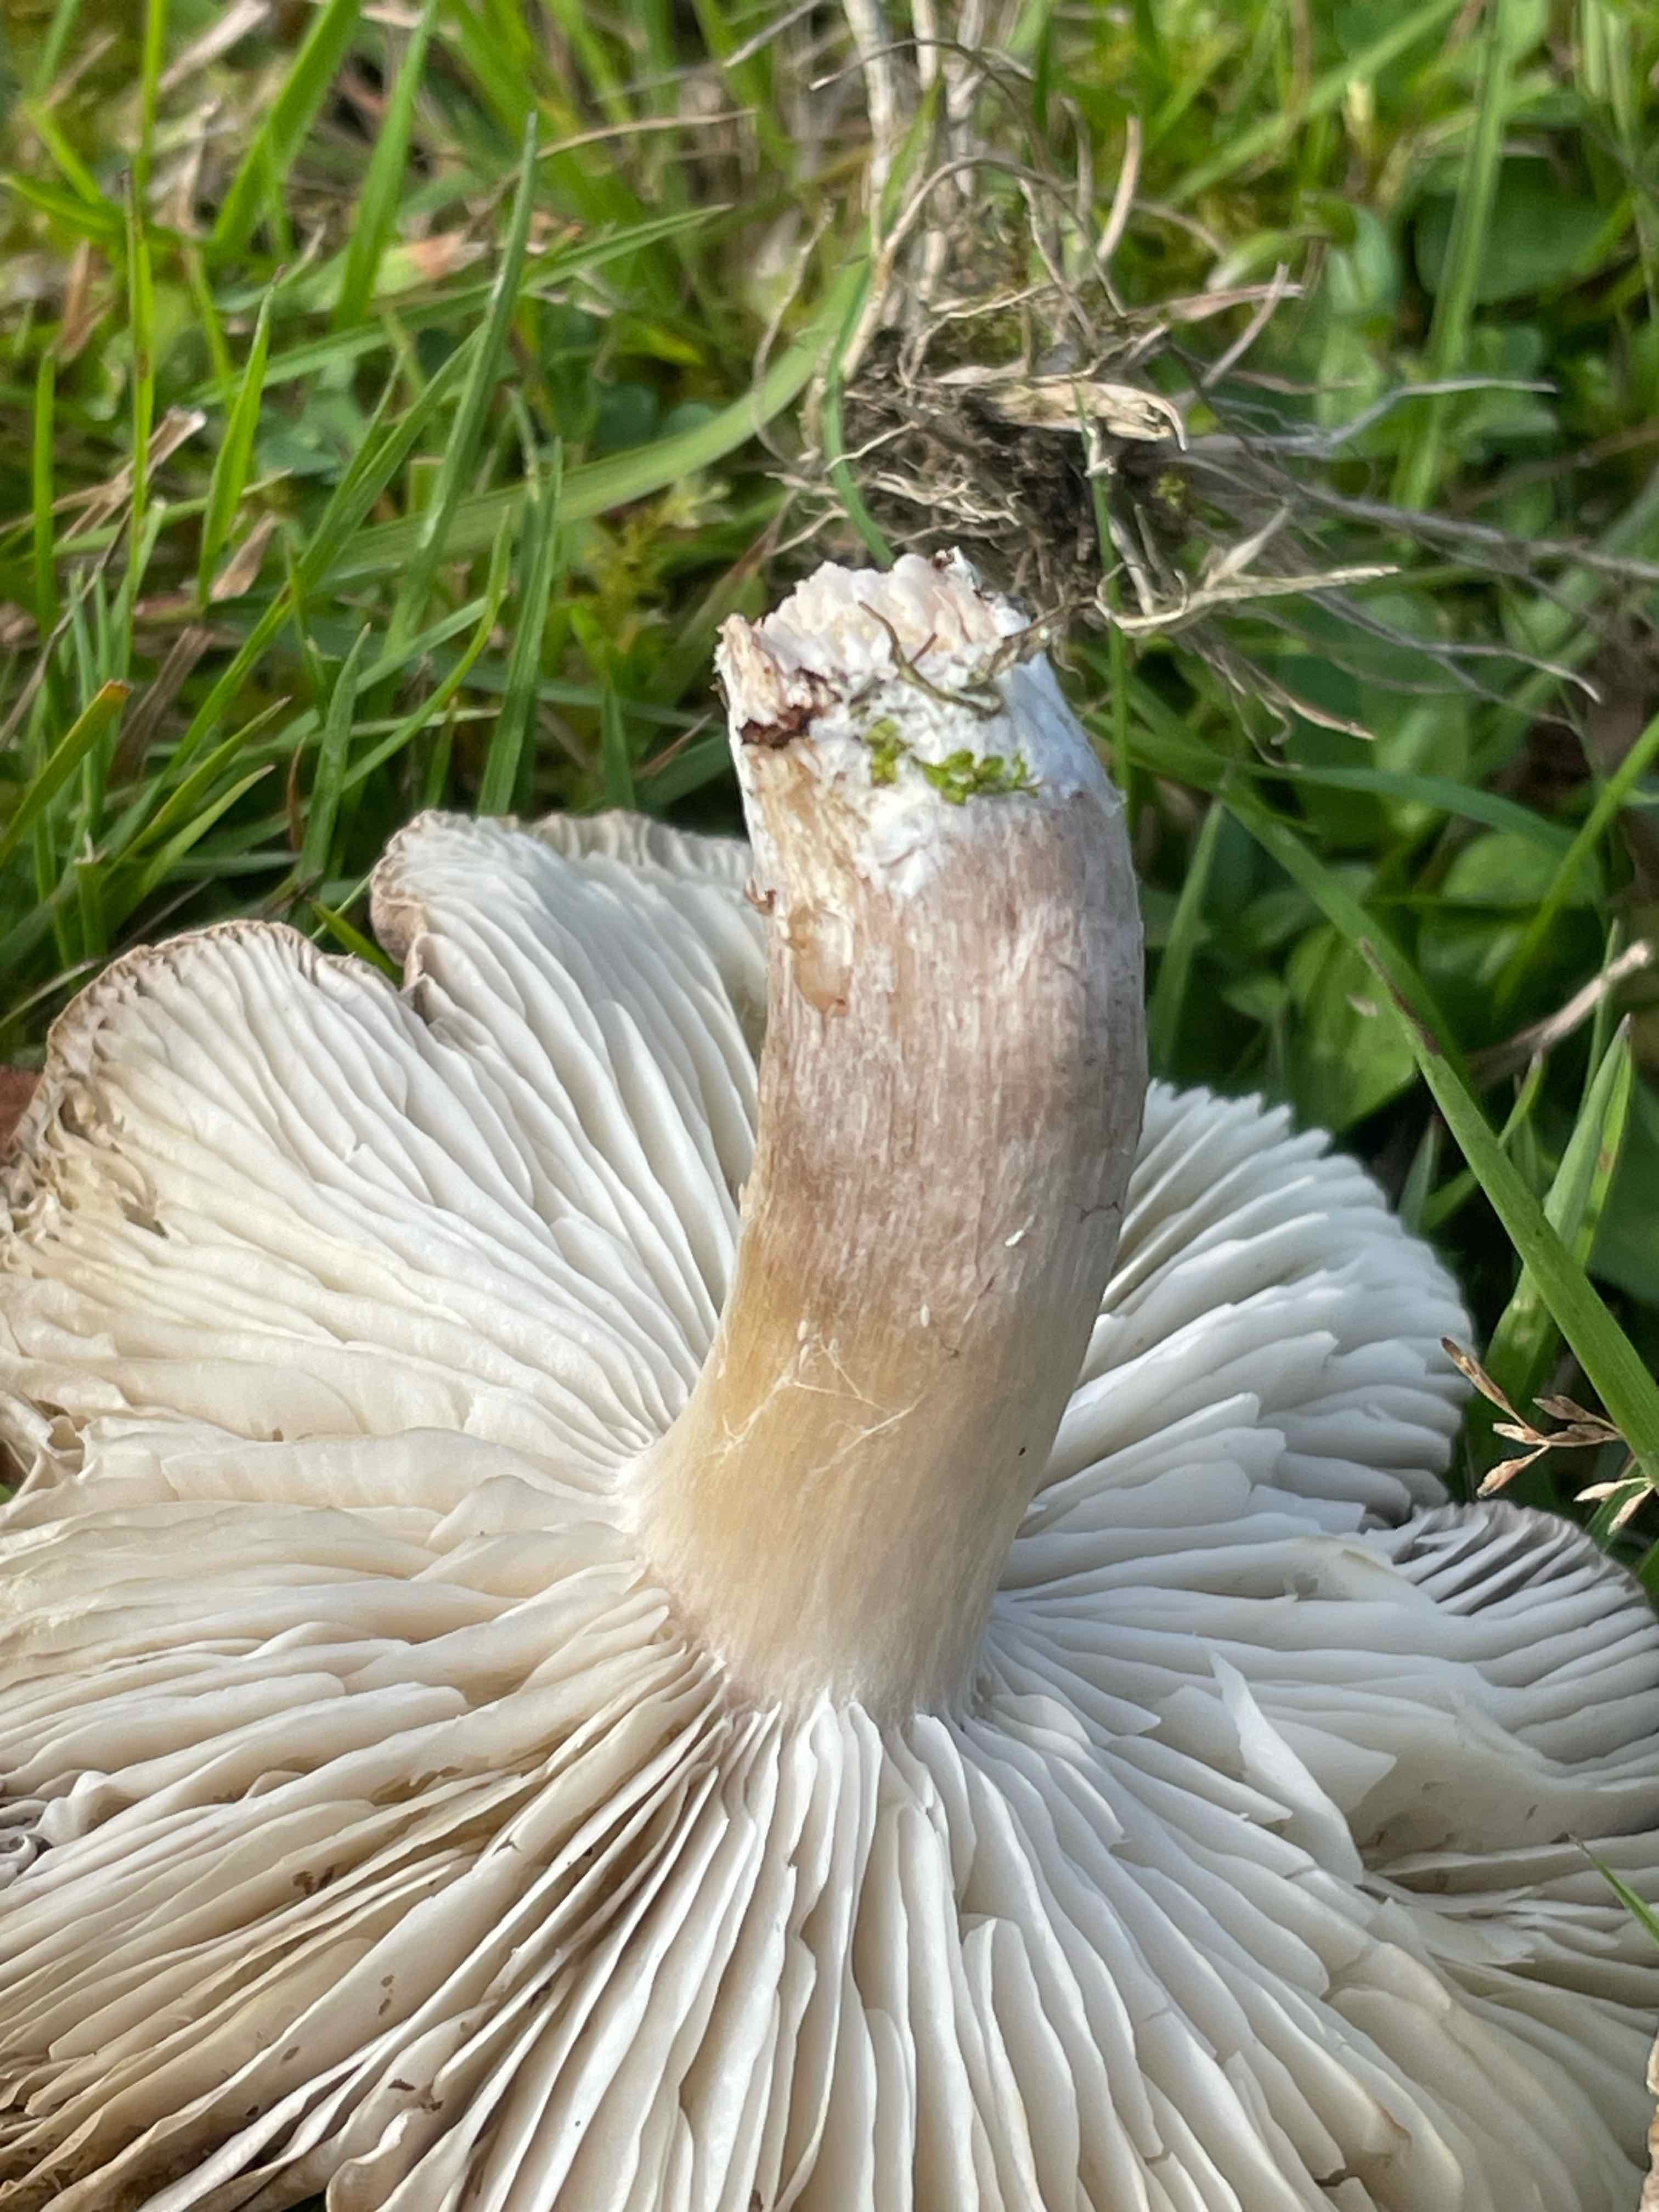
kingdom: Fungi
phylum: Basidiomycota
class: Agaricomycetes
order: Agaricales
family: Tricholomataceae
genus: Tricholoma
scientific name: Tricholoma
